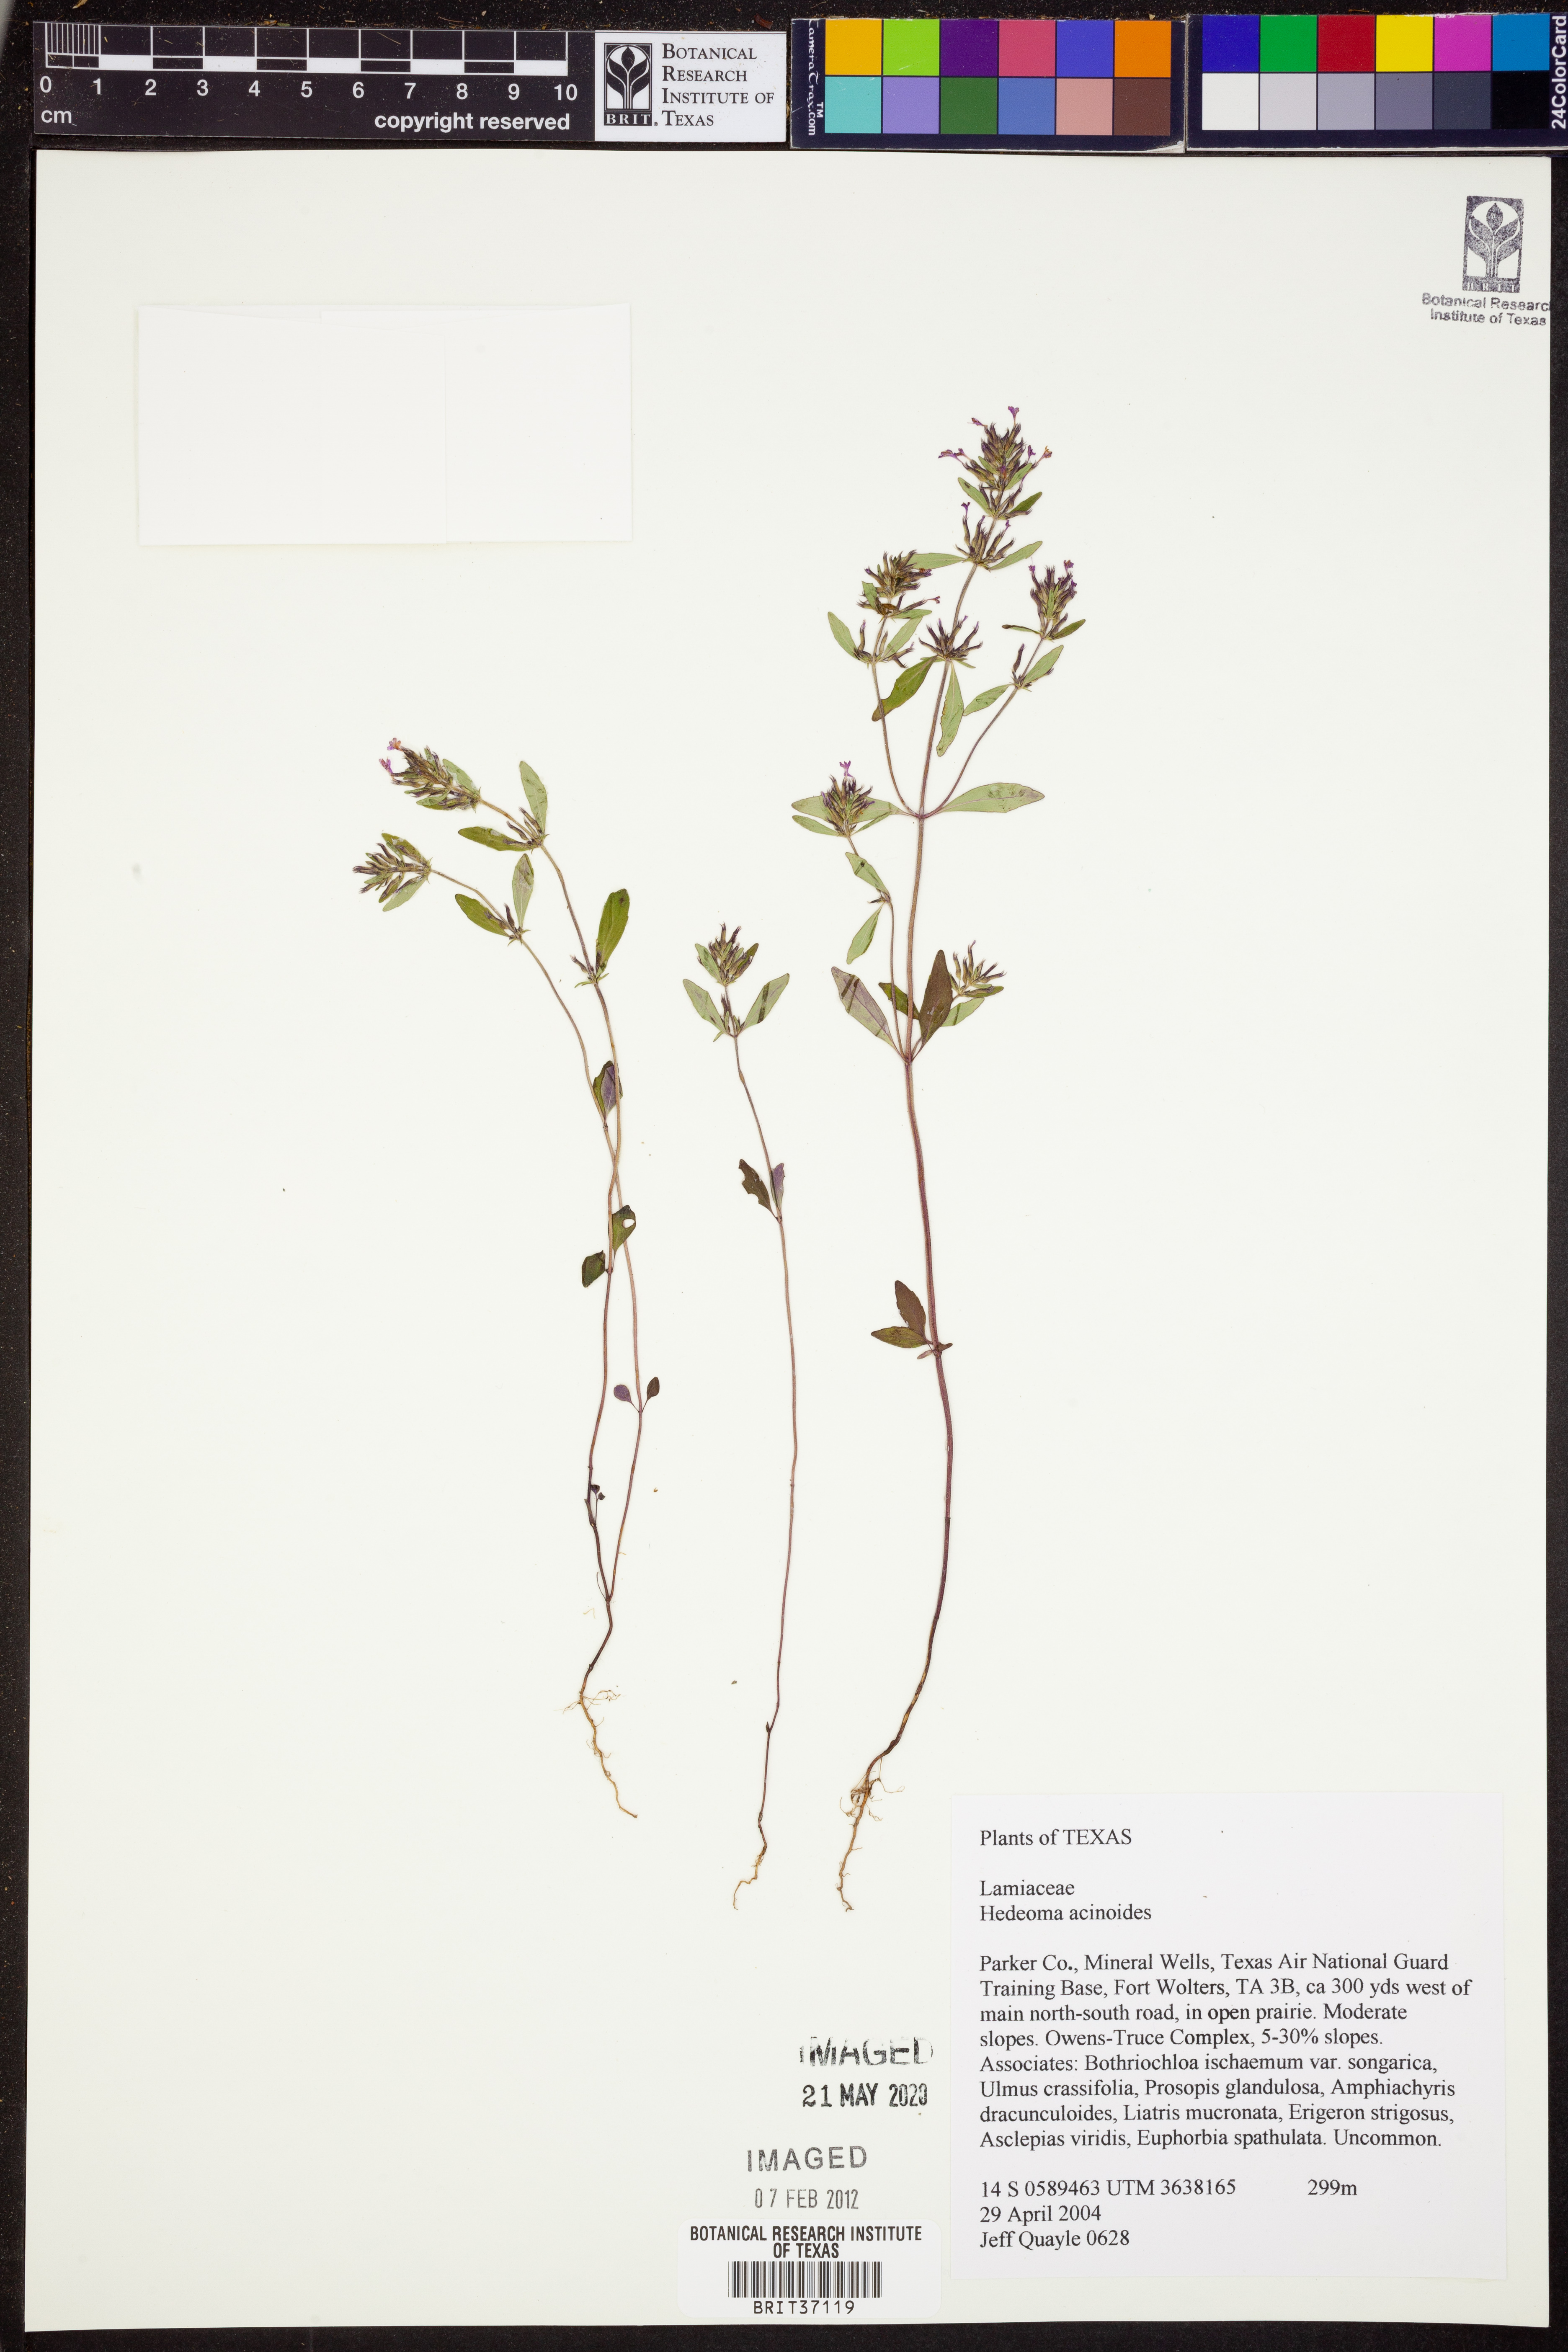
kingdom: Plantae
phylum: Tracheophyta
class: Magnoliopsida
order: Lamiales
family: Lamiaceae
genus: Hedeoma
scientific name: Hedeoma acinoides
